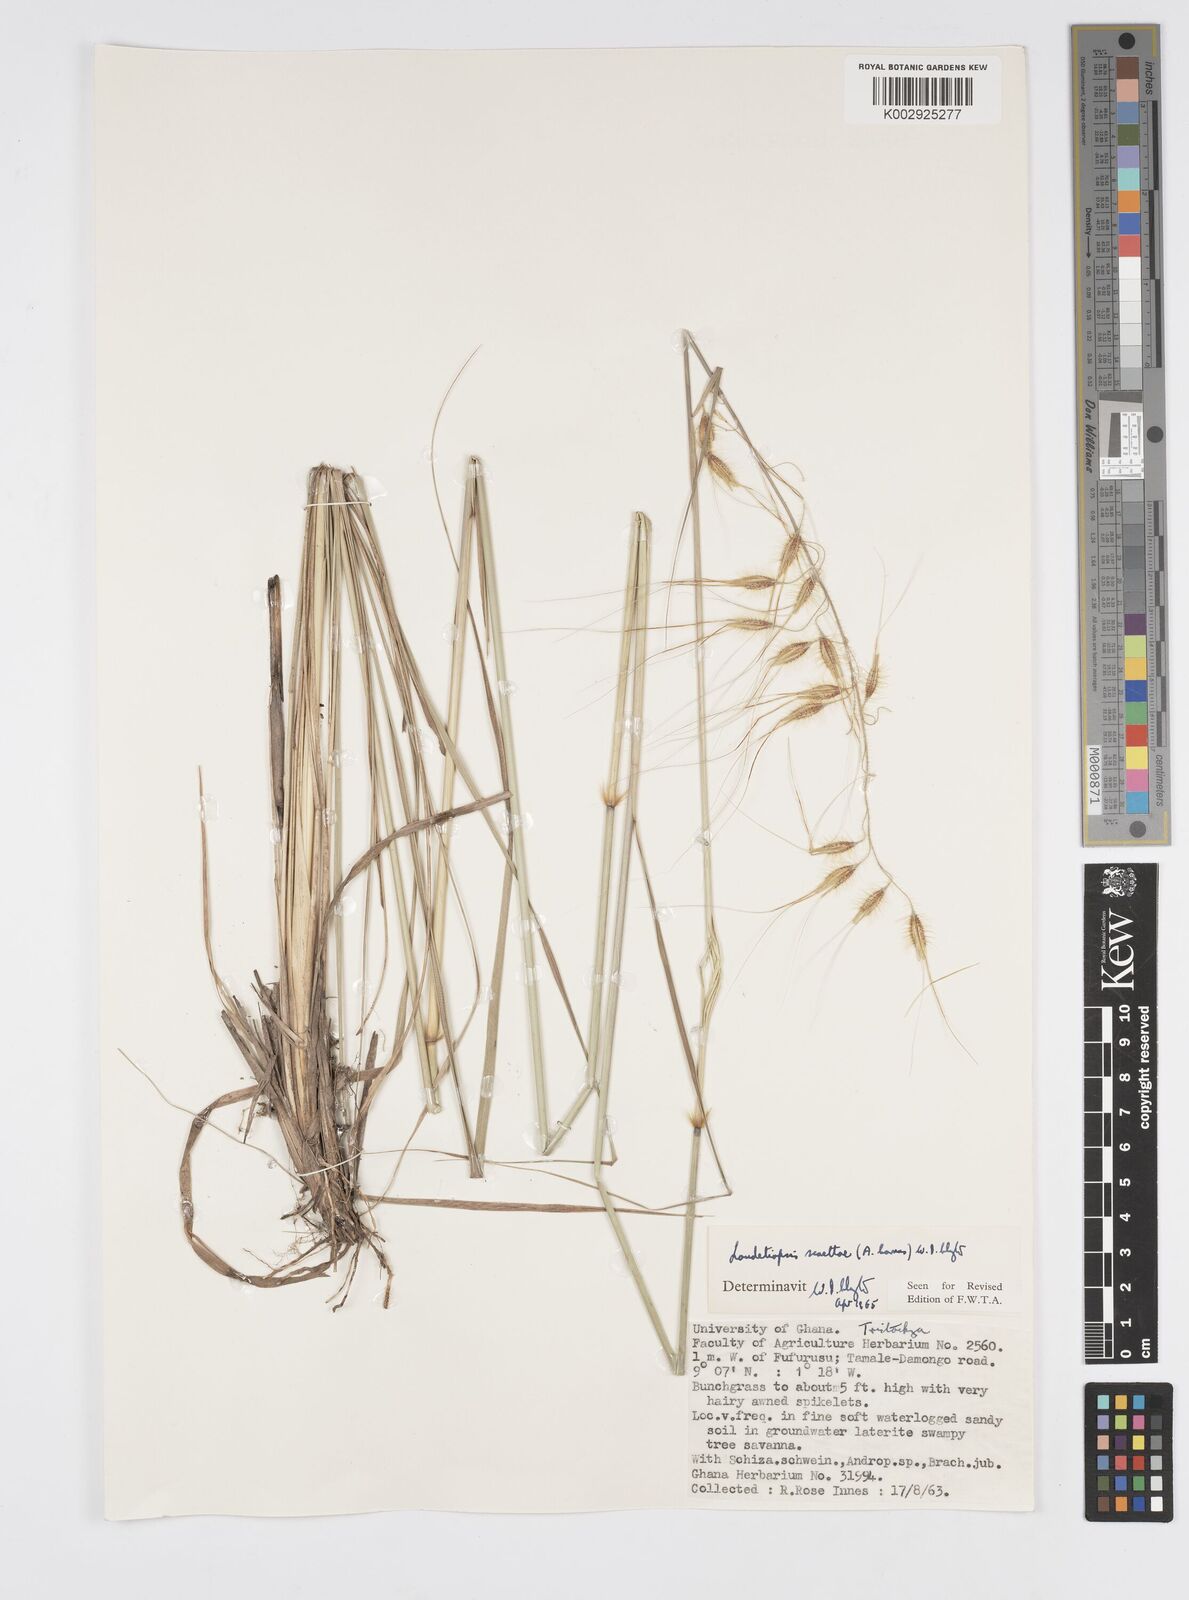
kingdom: Plantae
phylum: Tracheophyta
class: Liliopsida
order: Poales
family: Poaceae
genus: Loudetiopsis
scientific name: Loudetiopsis scaettae
